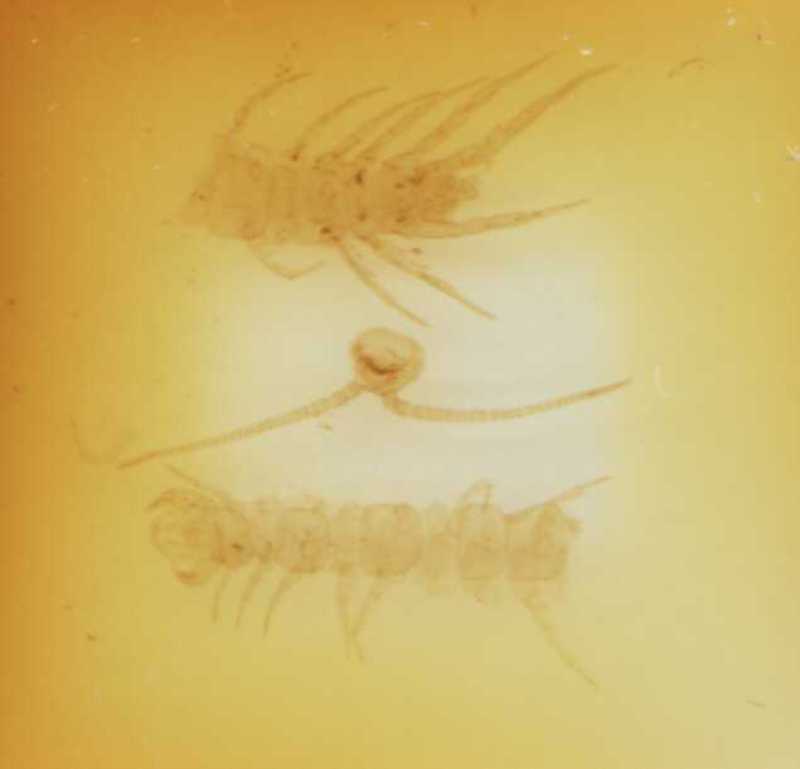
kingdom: Animalia
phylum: Arthropoda
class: Chilopoda
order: Lithobiomorpha
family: Lithobiidae
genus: Lithobius
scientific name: Lithobius latro
